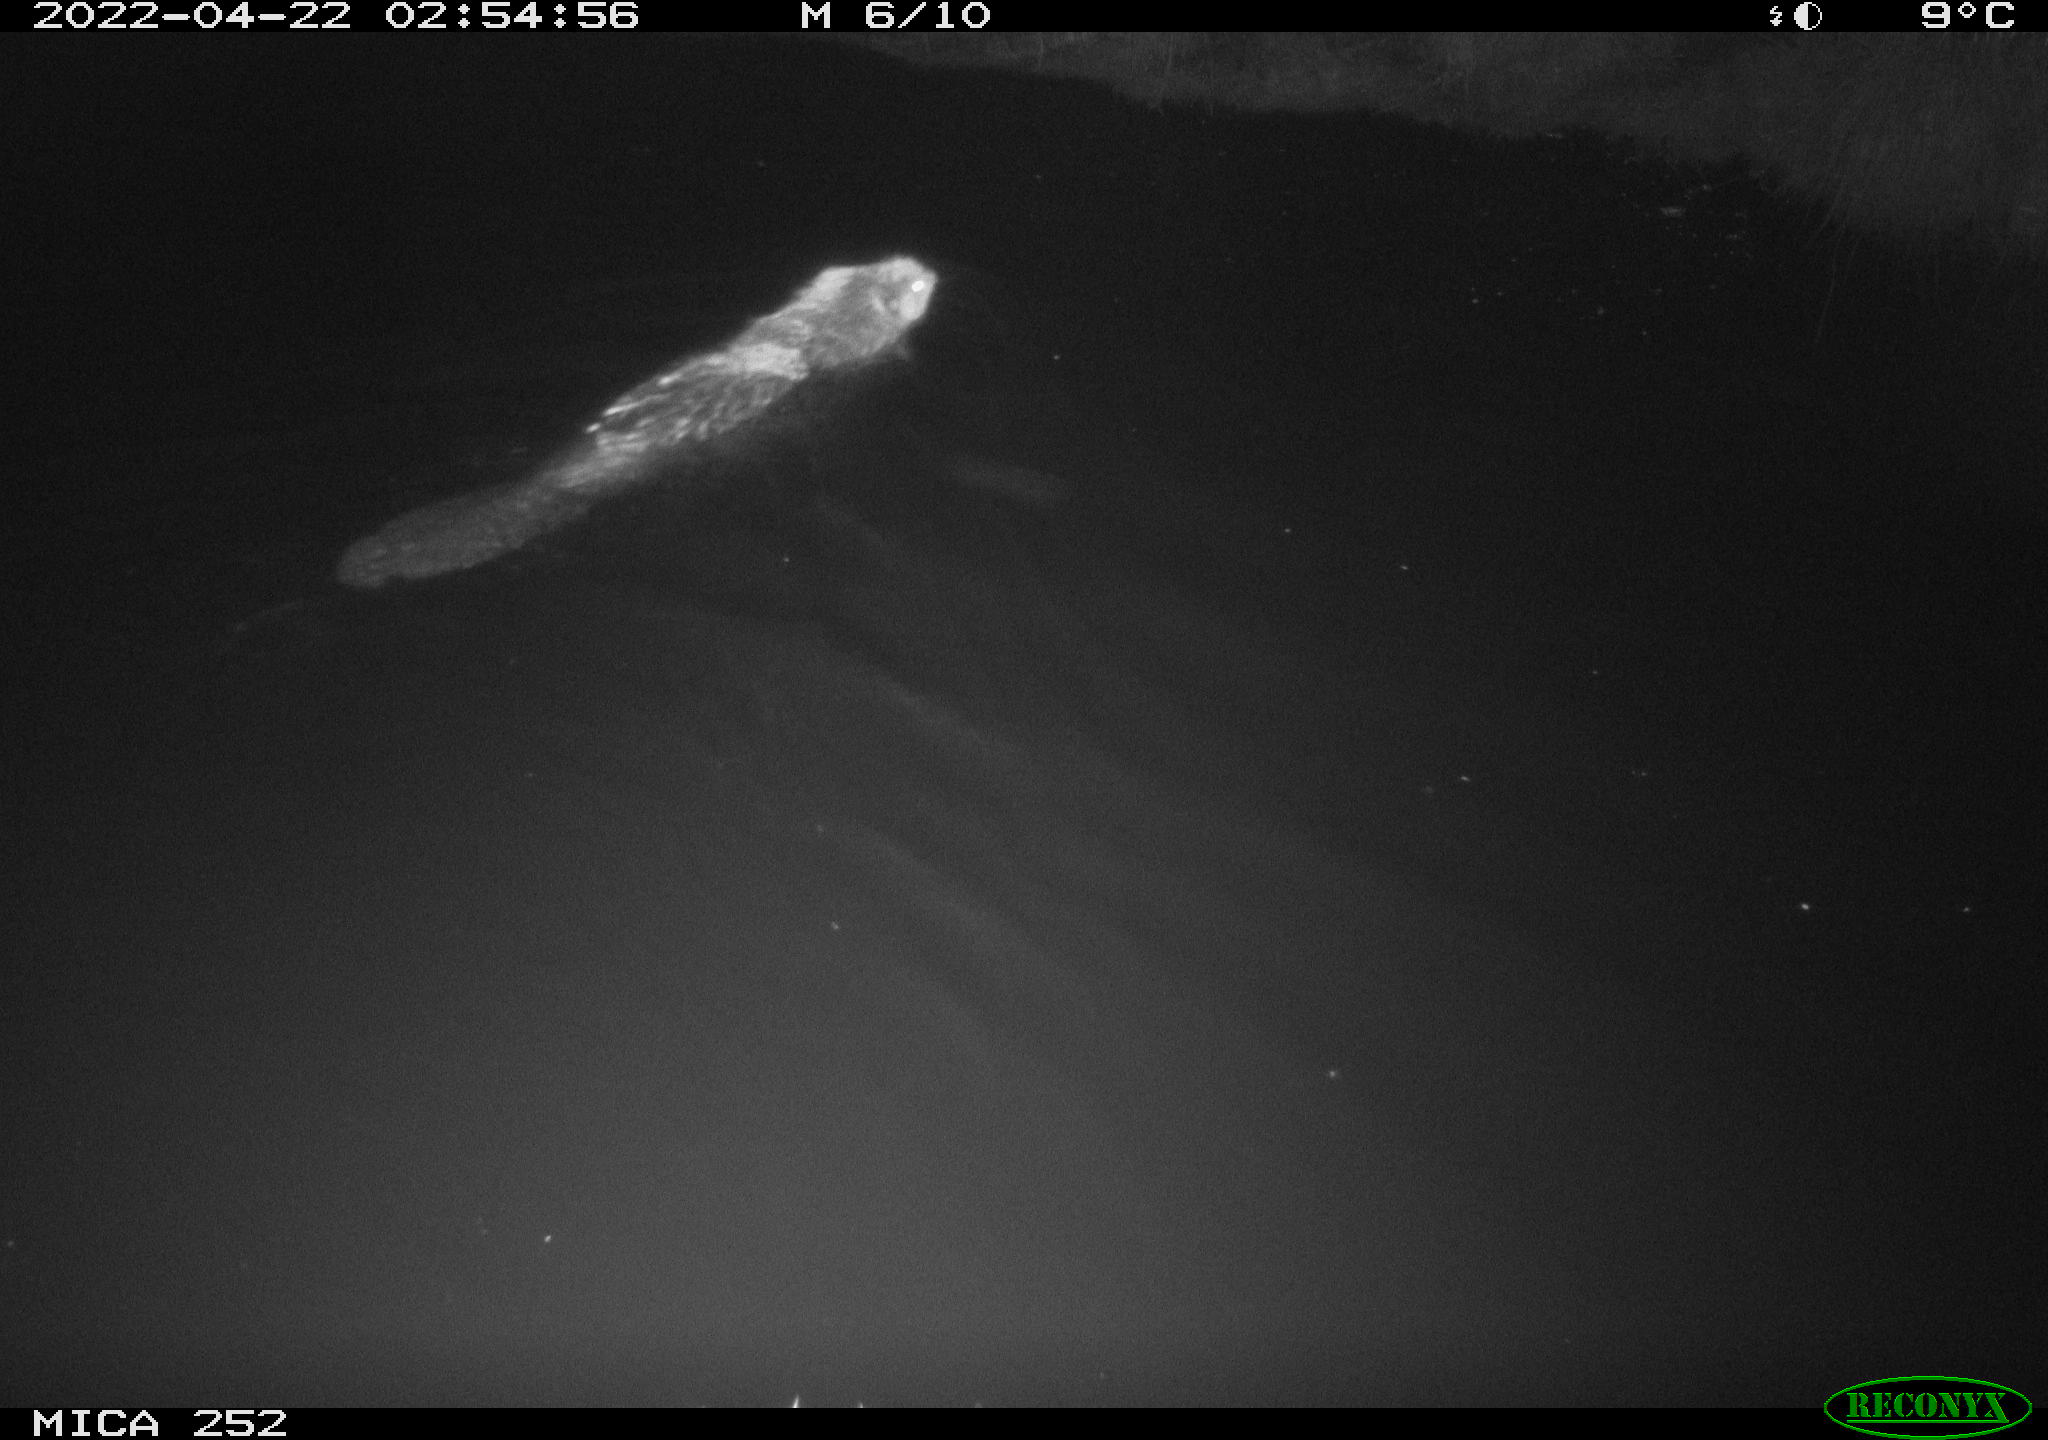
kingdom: Animalia
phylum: Chordata
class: Mammalia
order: Rodentia
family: Castoridae
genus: Castor
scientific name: Castor fiber
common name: Eurasian beaver
